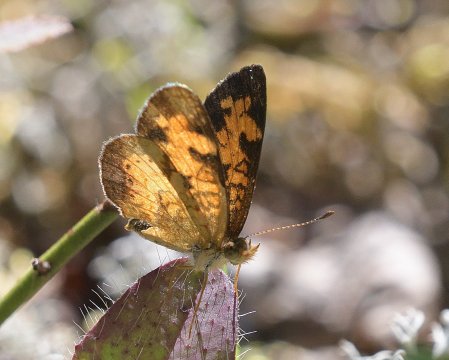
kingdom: Animalia
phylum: Arthropoda
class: Insecta
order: Lepidoptera
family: Nymphalidae
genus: Phyciodes
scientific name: Phyciodes tharos
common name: Northern Crescent
